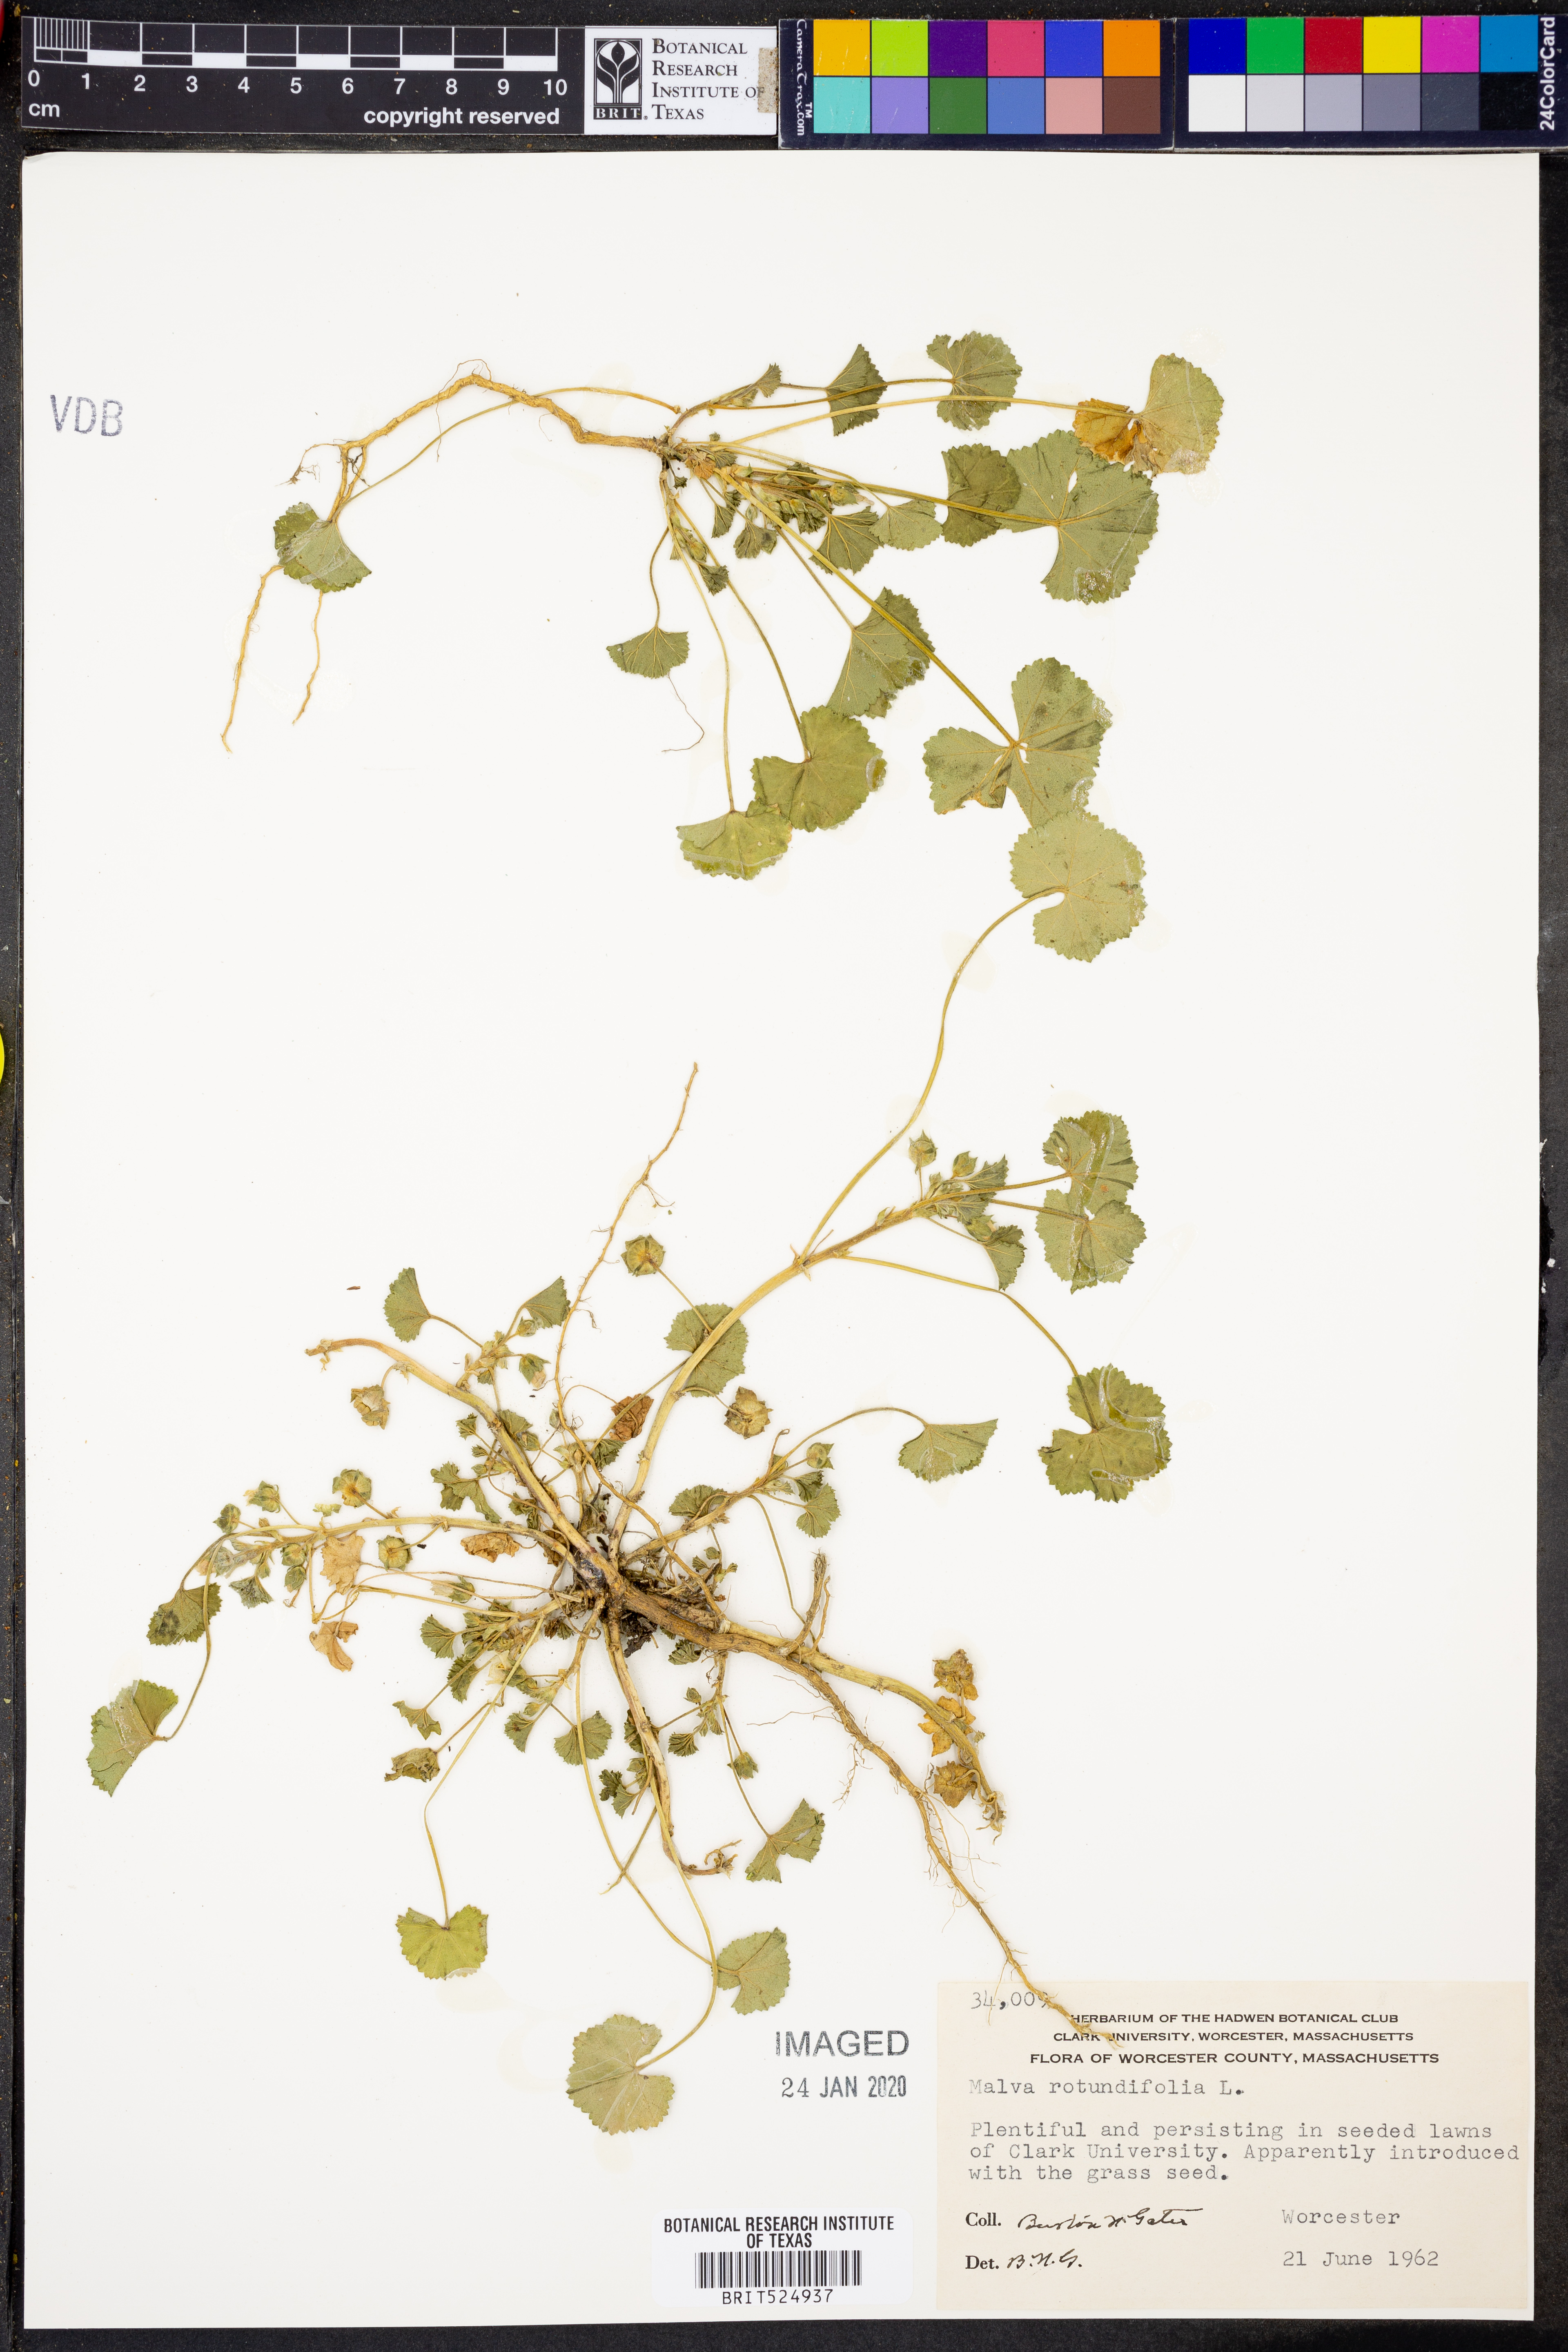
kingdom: Plantae
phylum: Tracheophyta
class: Magnoliopsida
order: Malvales
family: Malvaceae
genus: Malva
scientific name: Malva pusilla
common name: Small mallow
